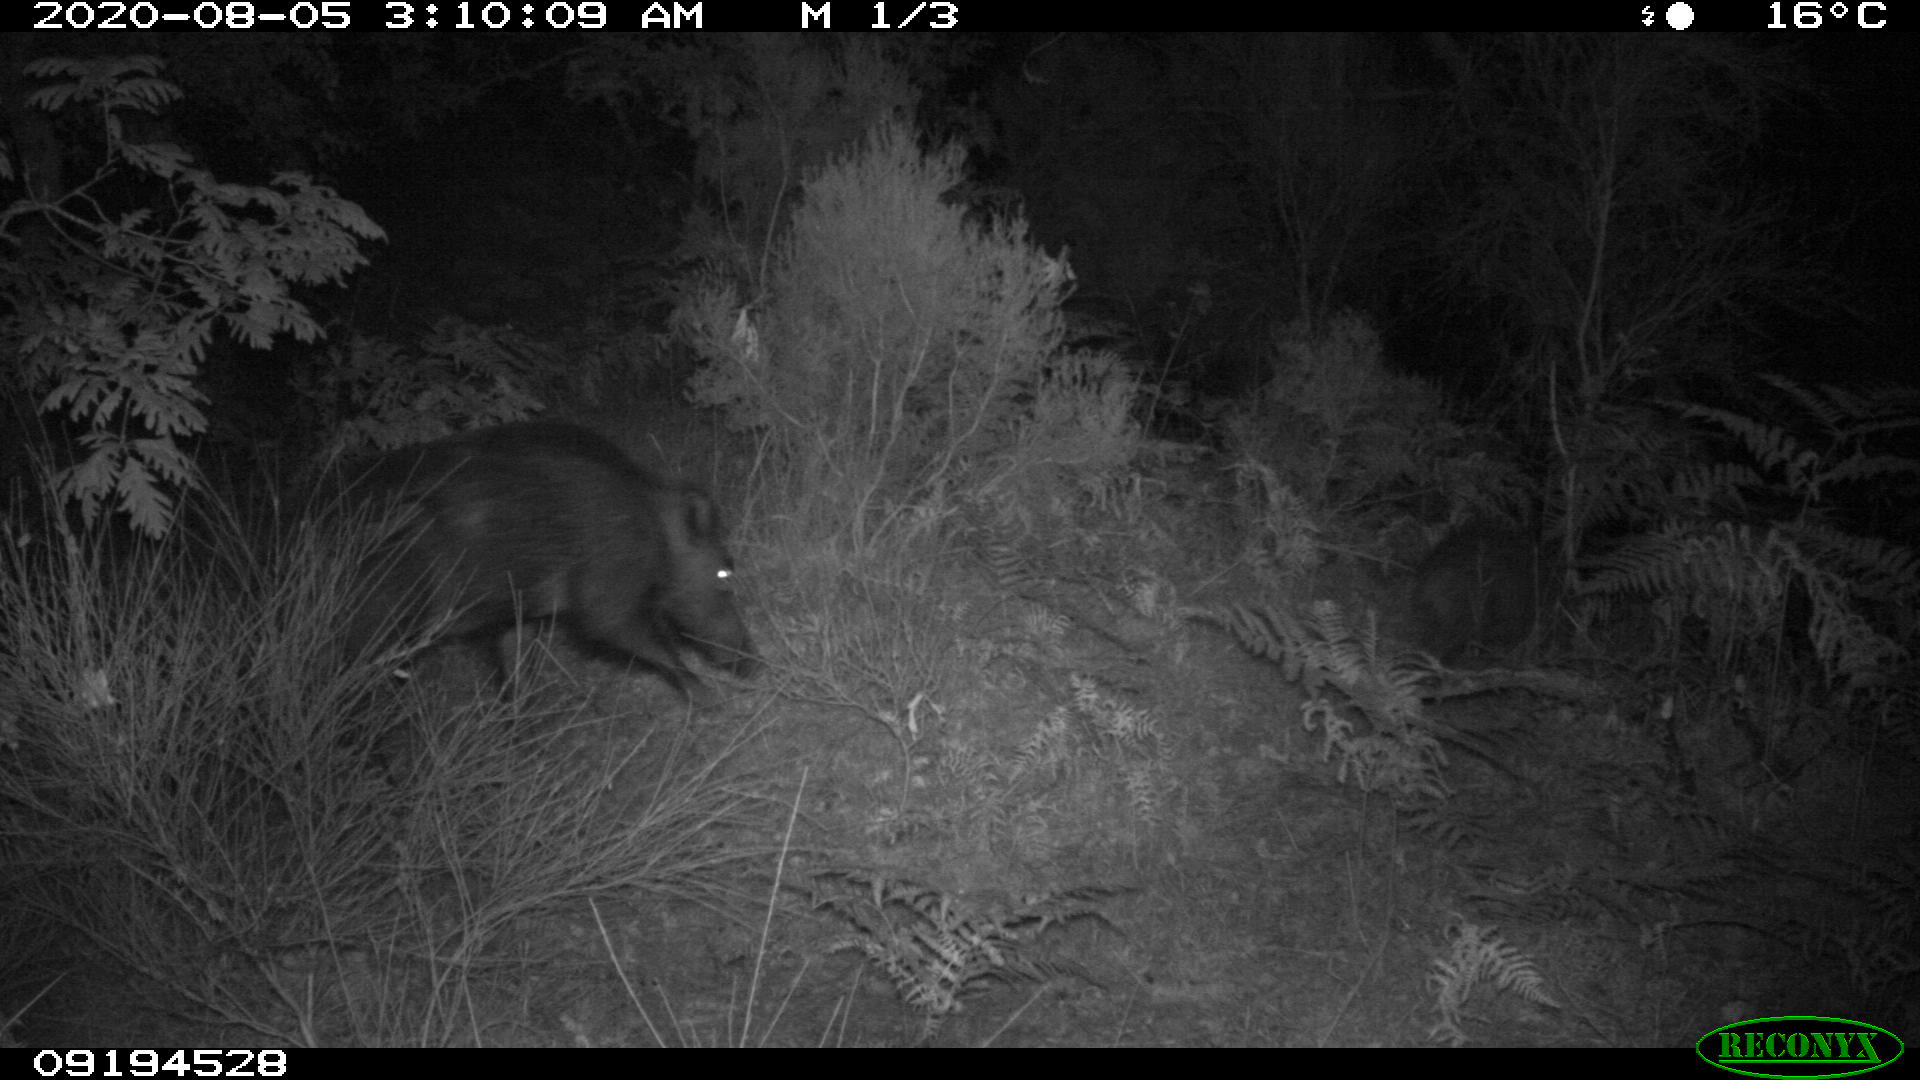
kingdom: Animalia
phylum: Chordata
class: Mammalia
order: Artiodactyla
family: Suidae
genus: Sus
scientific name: Sus scrofa
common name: Wild boar
